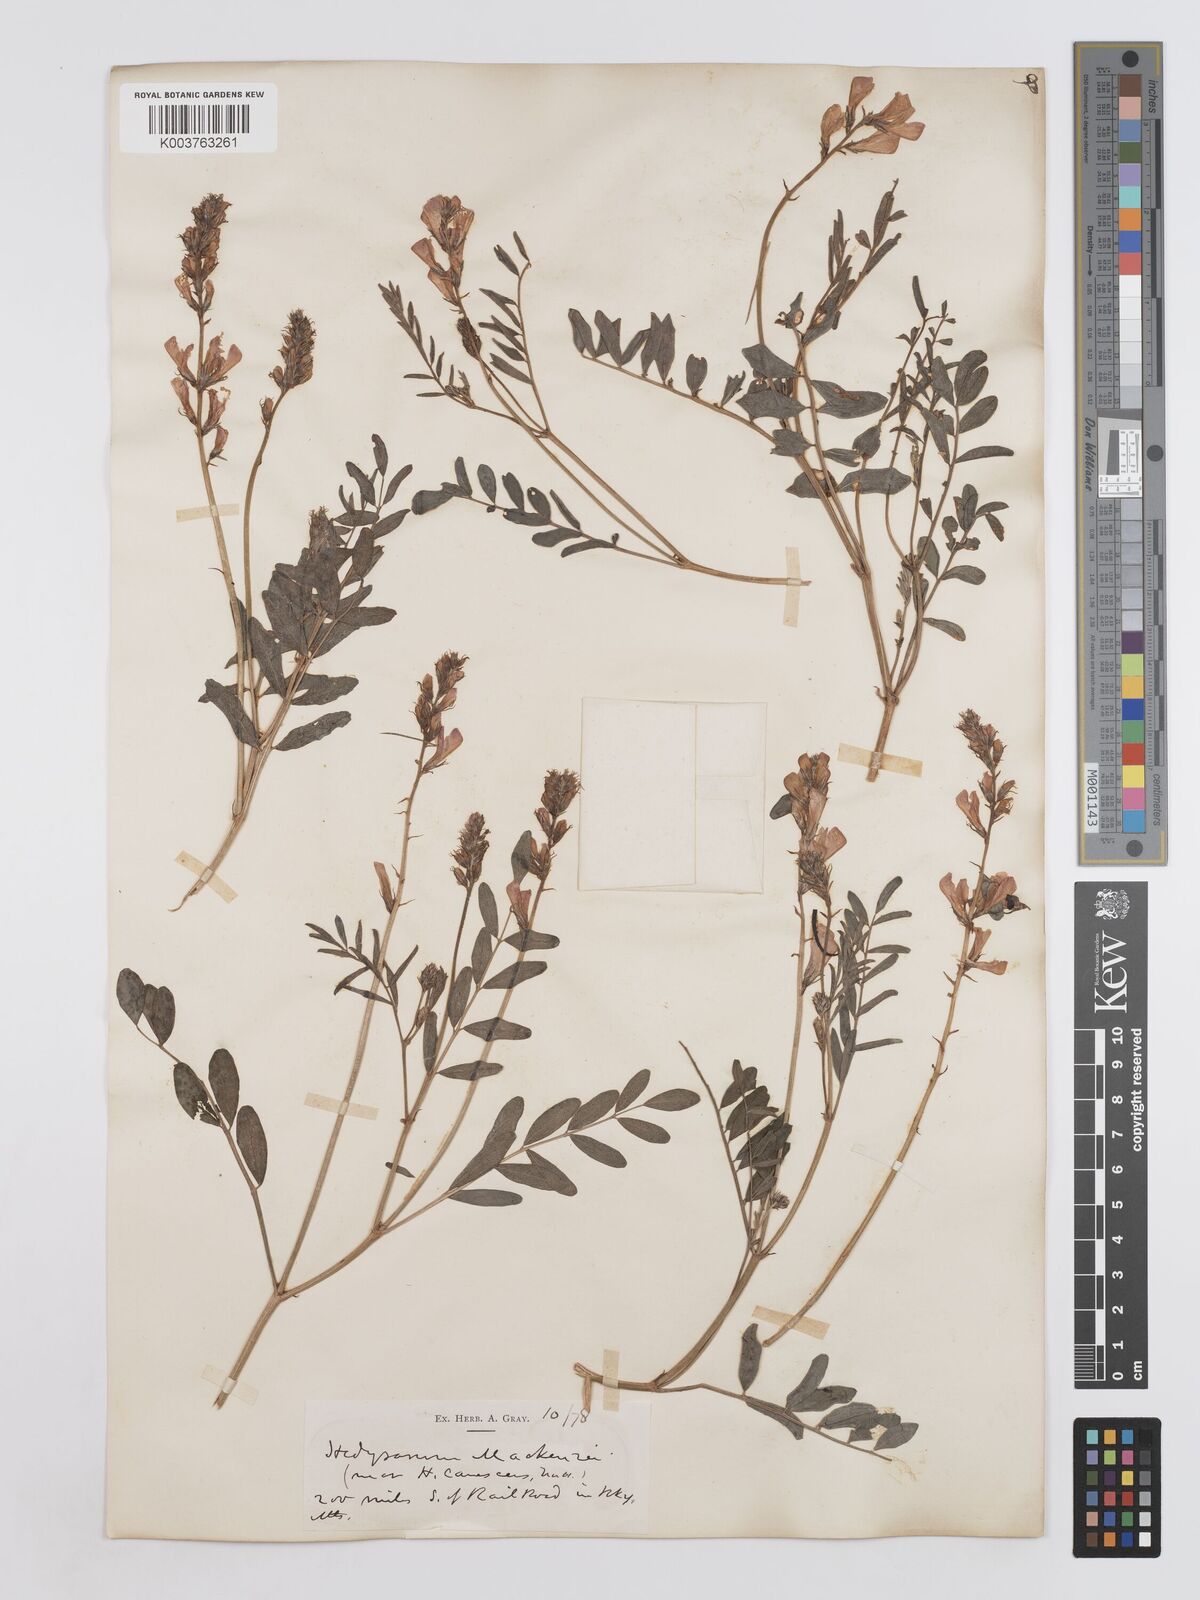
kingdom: Plantae
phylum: Tracheophyta
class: Magnoliopsida
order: Fabales
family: Fabaceae
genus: Hedysarum
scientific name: Hedysarum boreale
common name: Northern sweet-vetch
